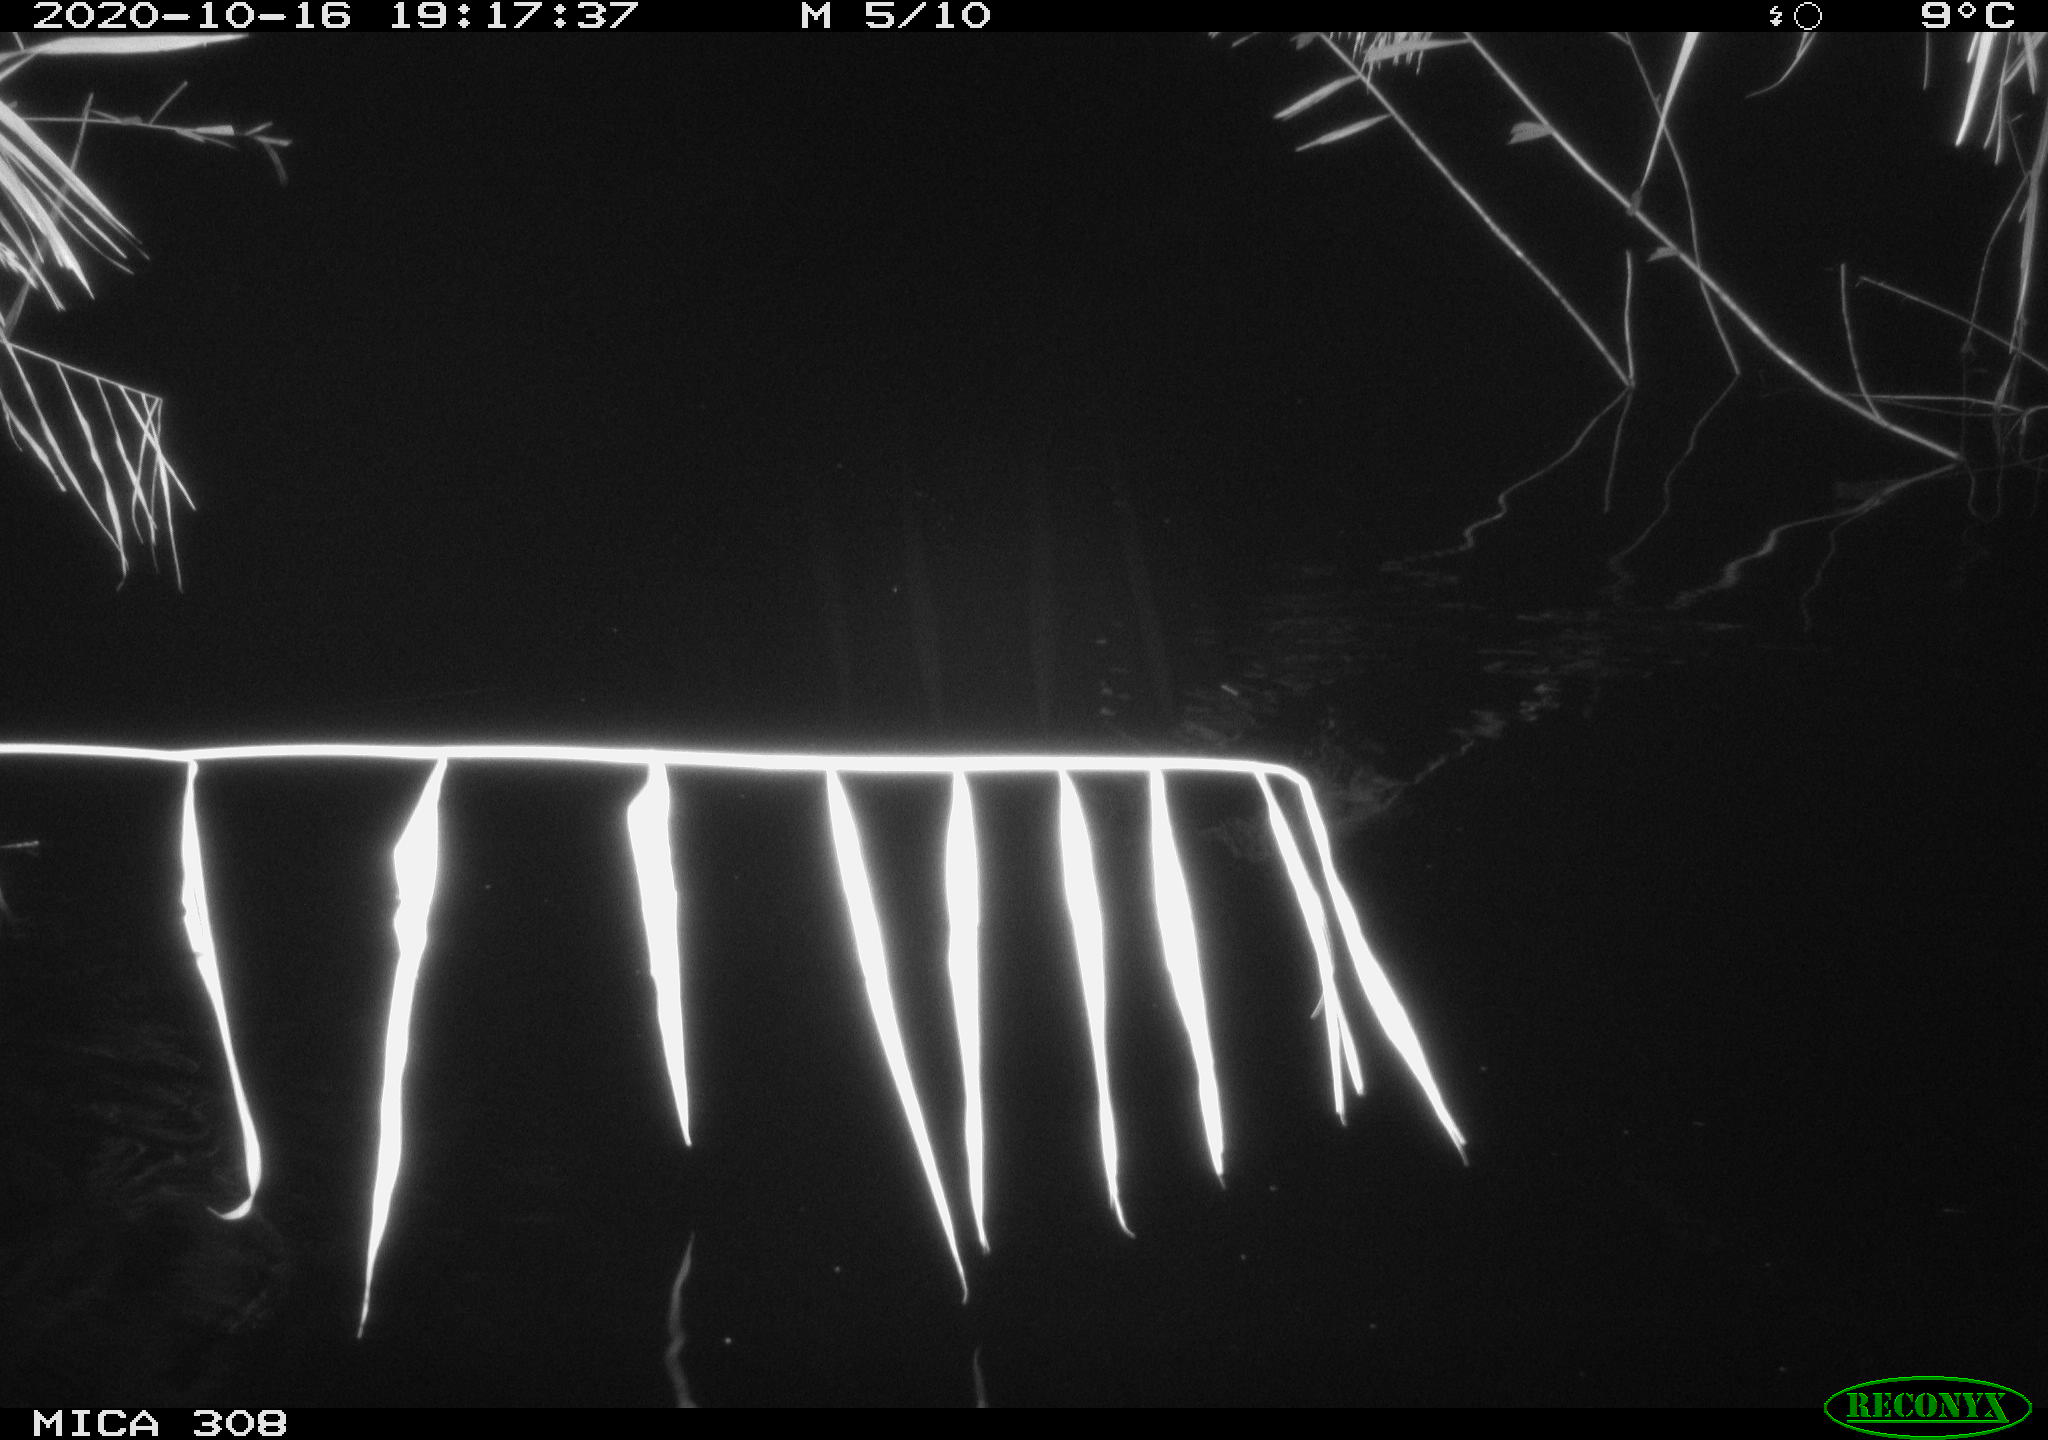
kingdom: Animalia
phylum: Chordata
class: Mammalia
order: Rodentia
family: Muridae
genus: Rattus
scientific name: Rattus norvegicus
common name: Brown rat
